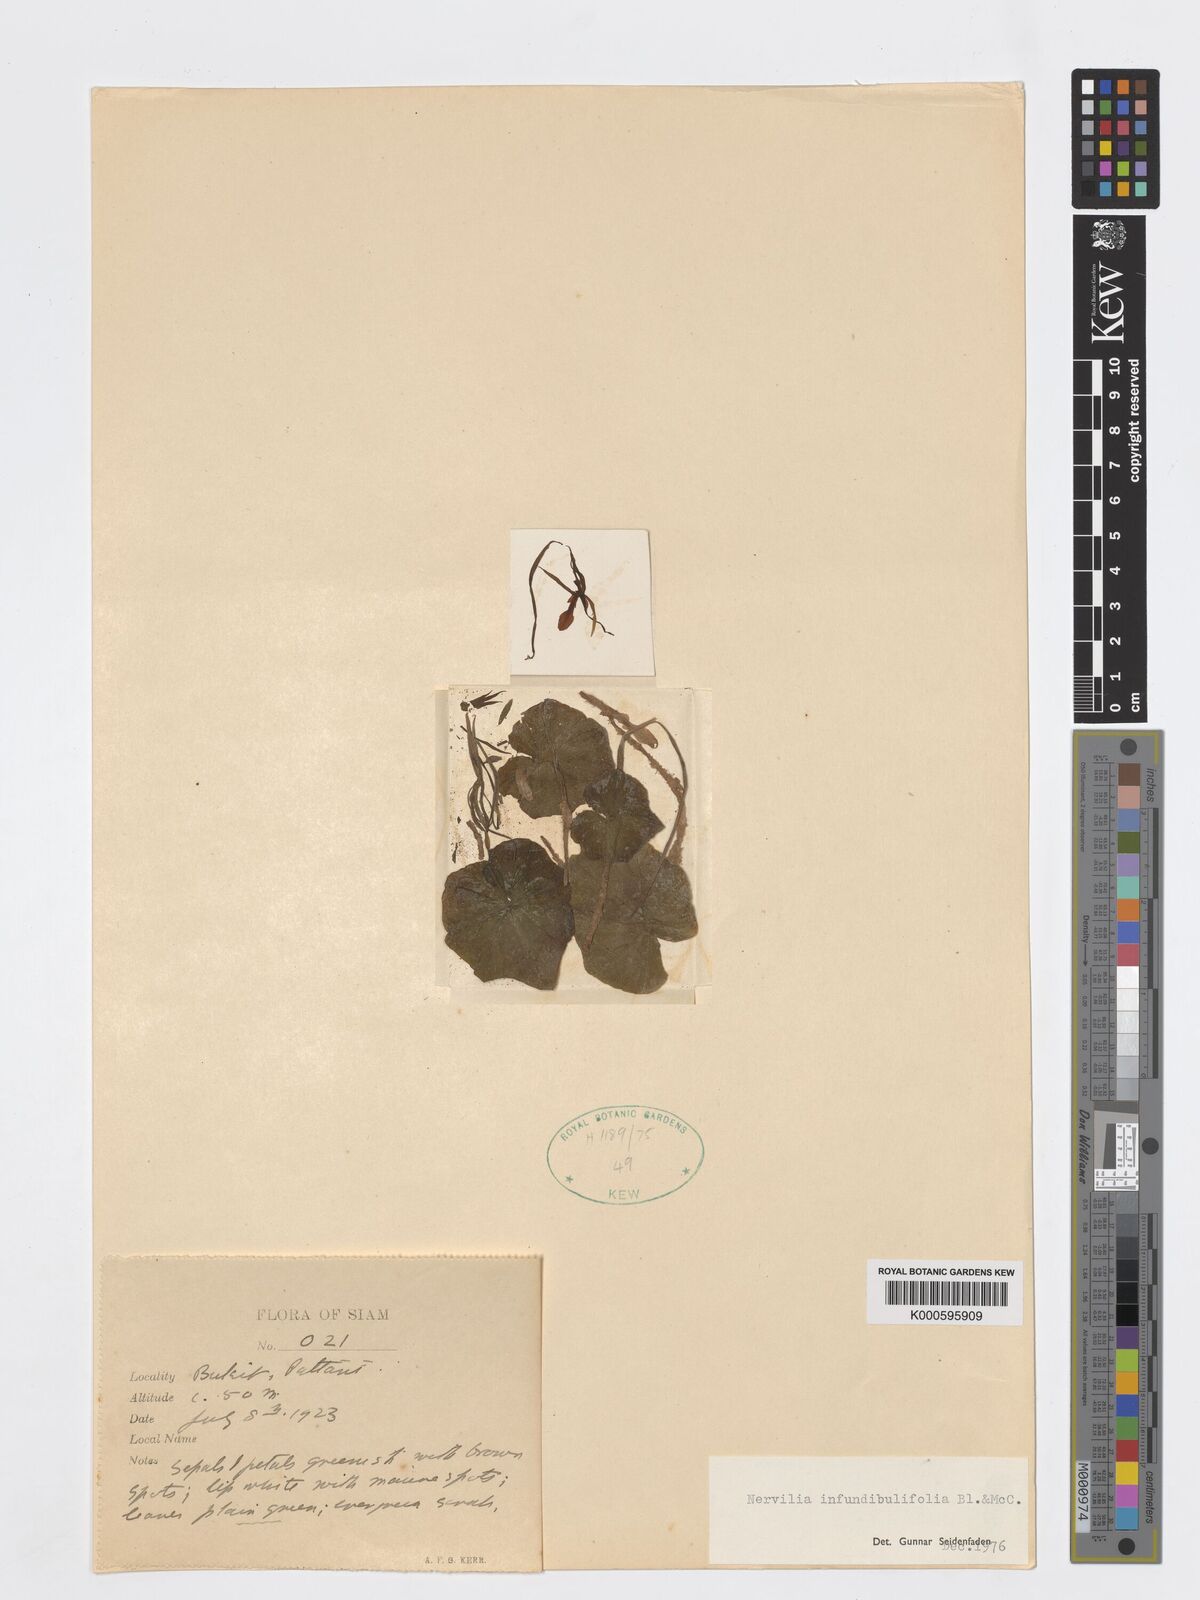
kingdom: Plantae
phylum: Tracheophyta
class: Liliopsida
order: Asparagales
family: Orchidaceae
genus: Nervilia
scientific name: Nervilia infundibulifolia
